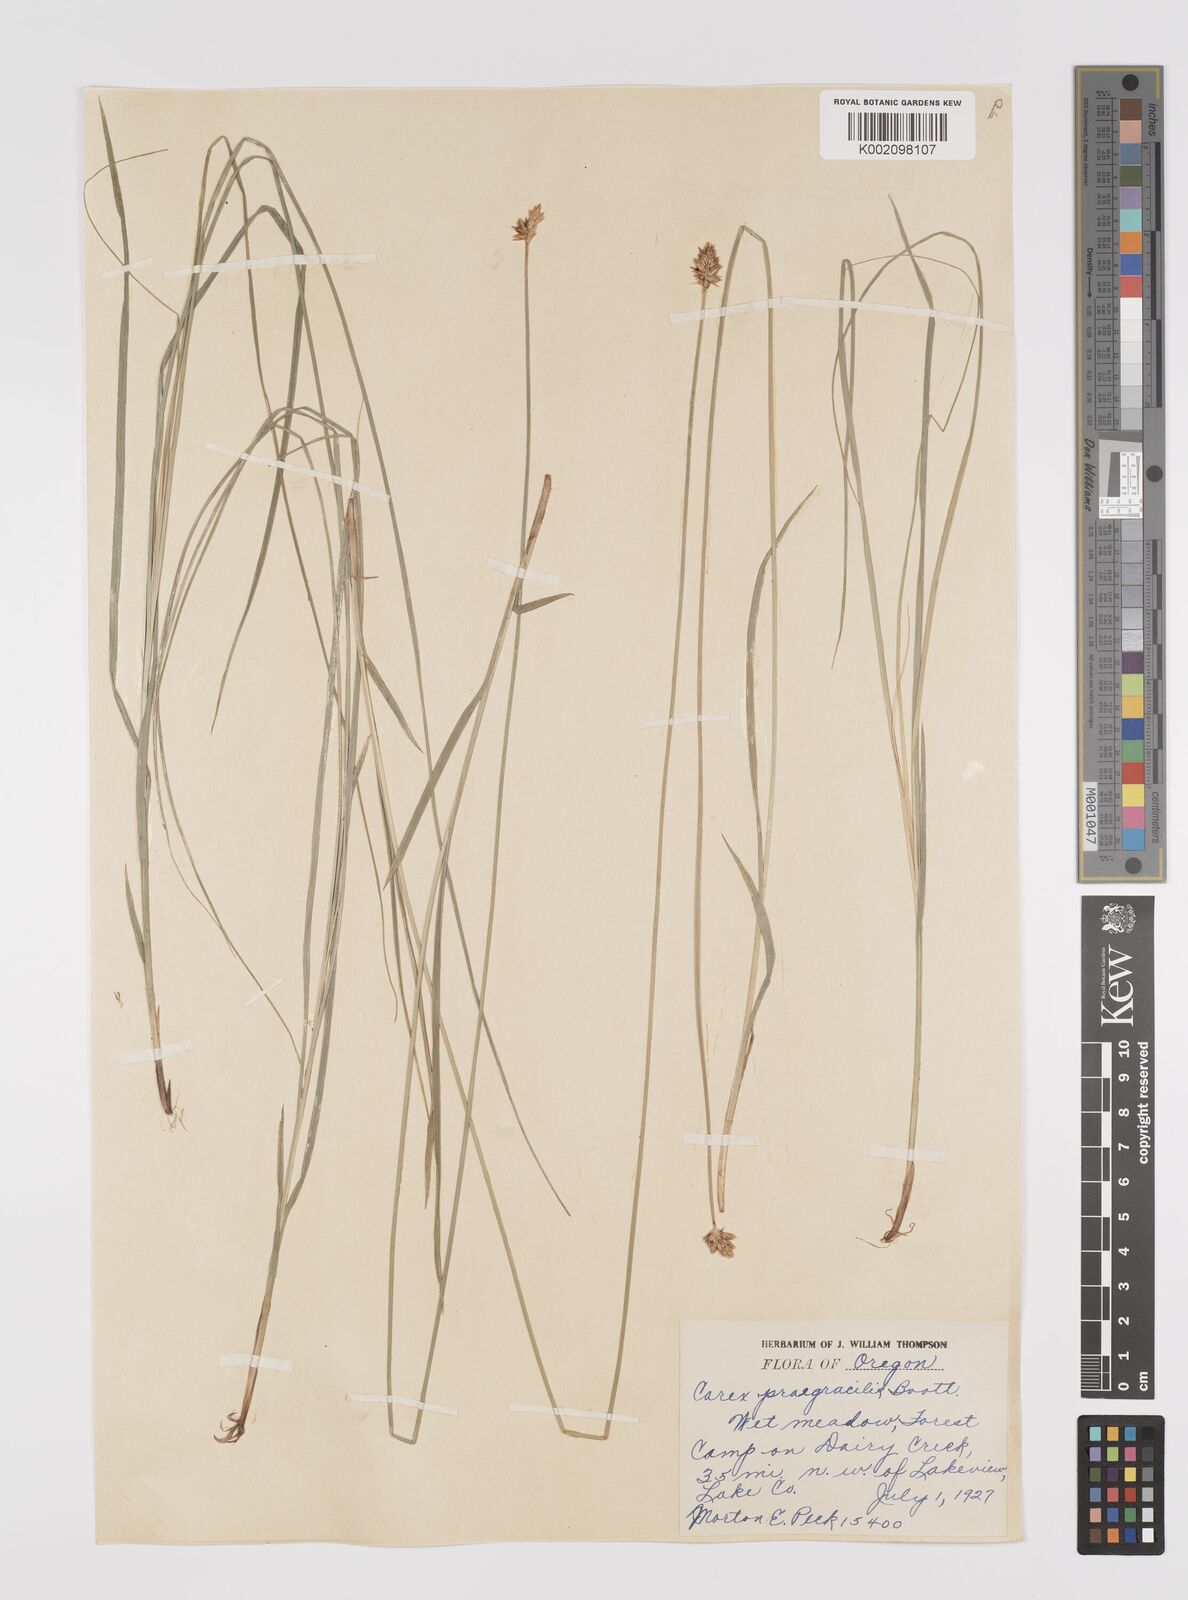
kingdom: Plantae
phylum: Tracheophyta
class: Liliopsida
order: Poales
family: Cyperaceae
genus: Carex
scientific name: Carex praegracilis
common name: Black creeper sedge
